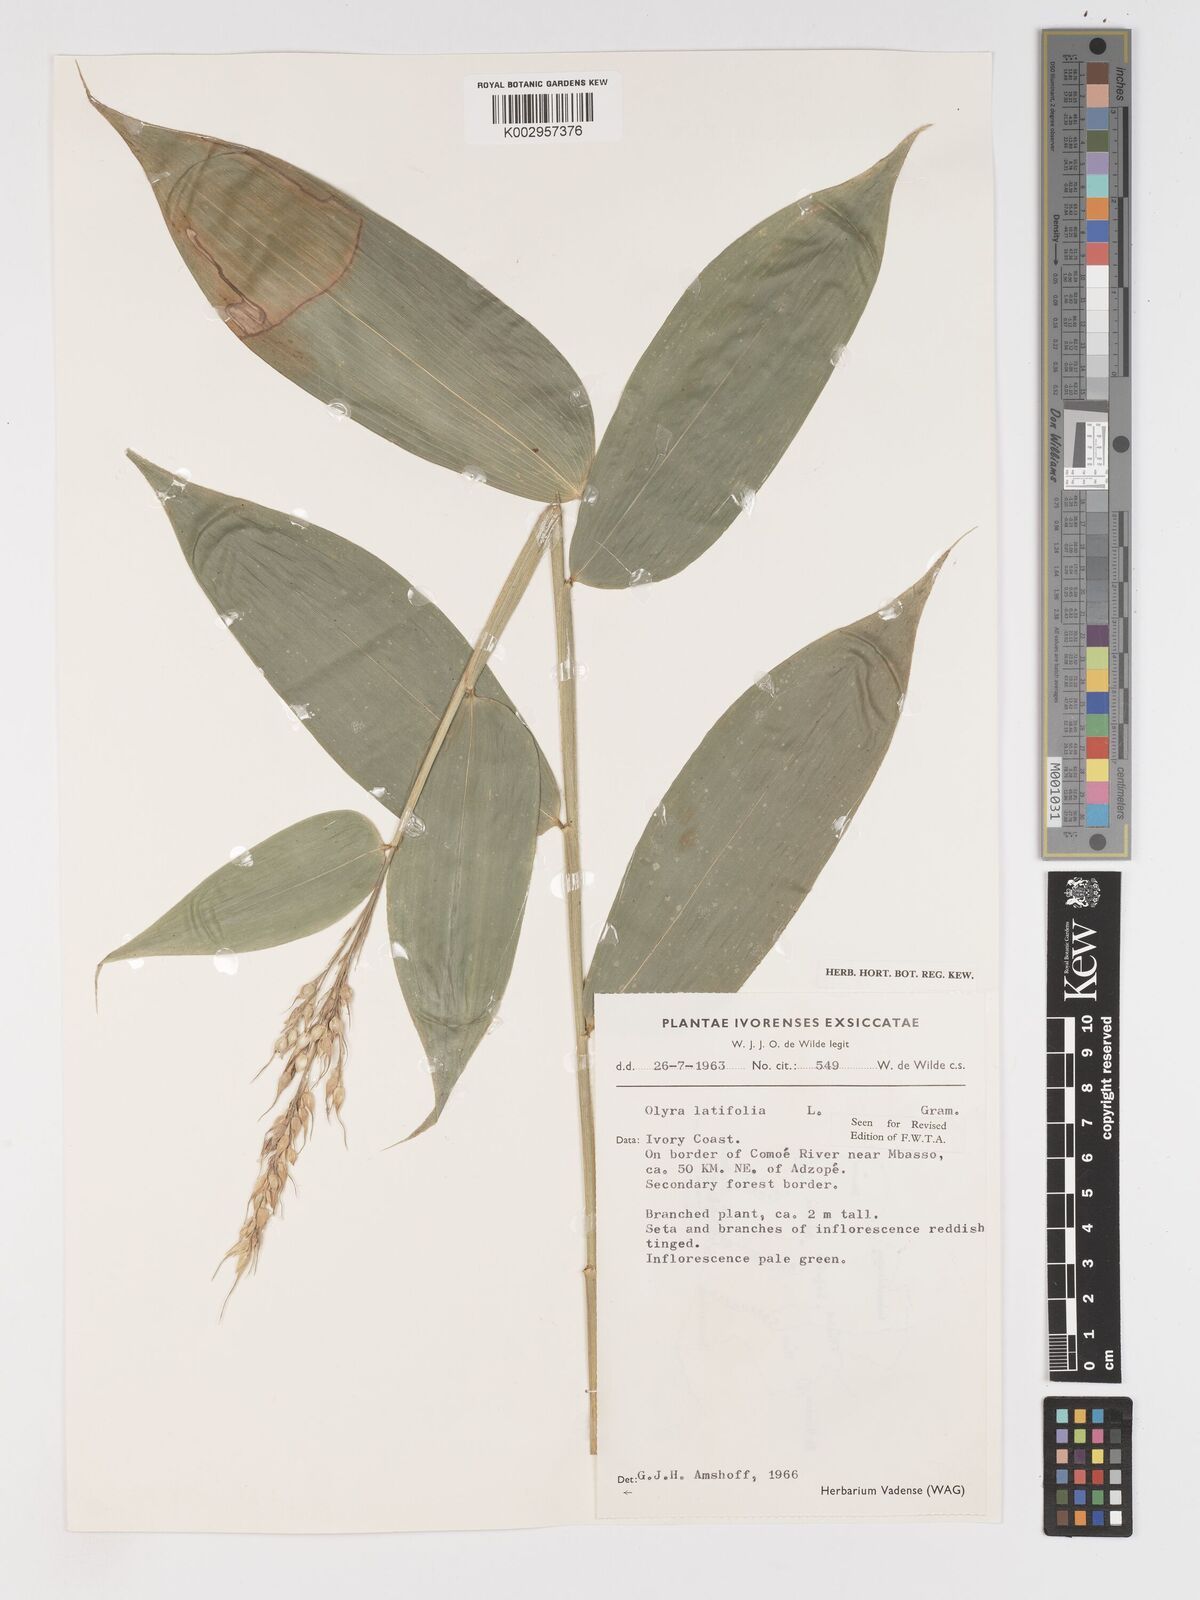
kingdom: Plantae
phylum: Tracheophyta
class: Liliopsida
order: Poales
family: Poaceae
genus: Olyra
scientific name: Olyra latifolia
